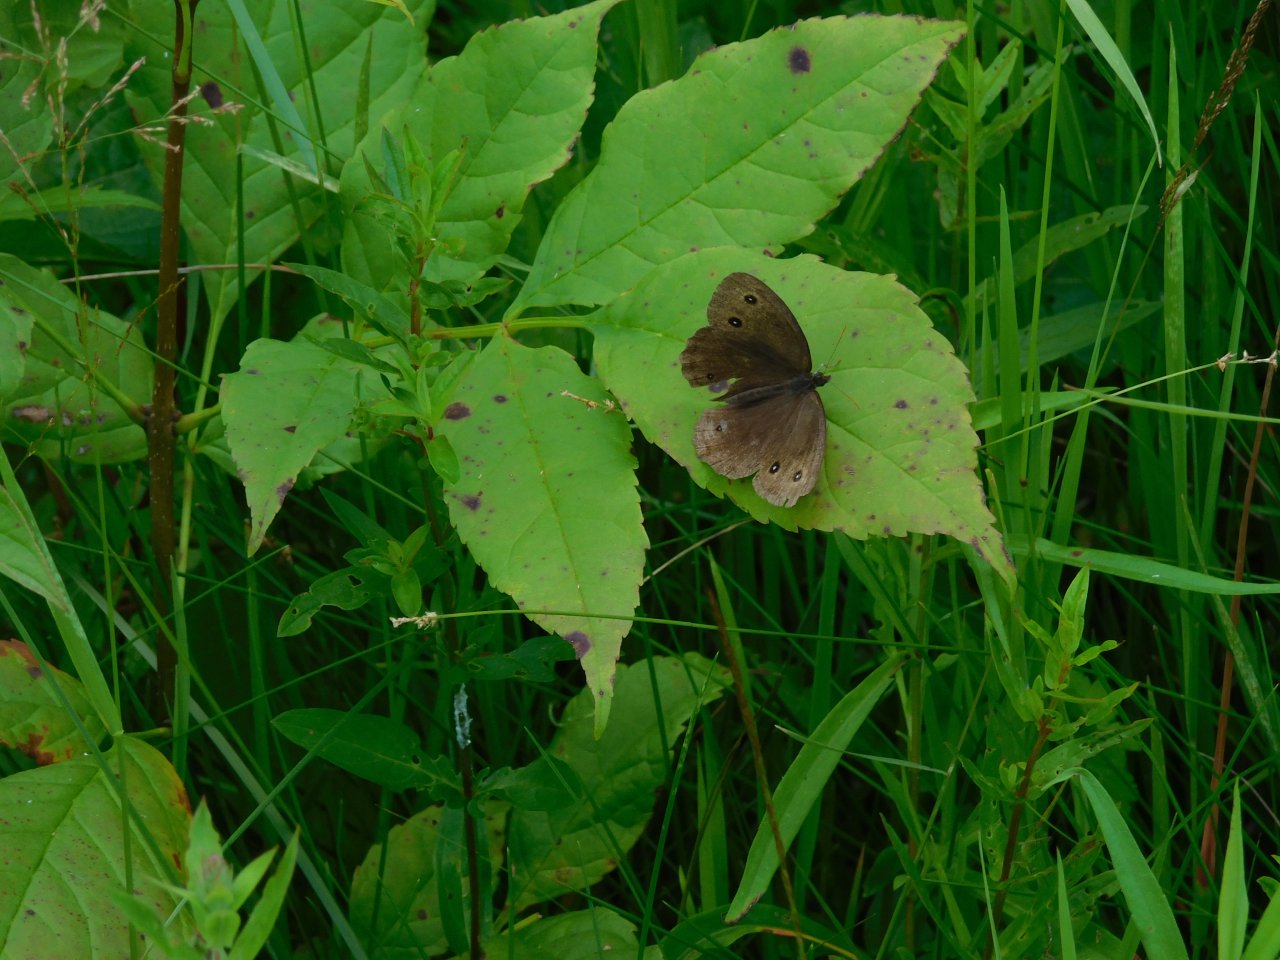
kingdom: Animalia
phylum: Arthropoda
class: Insecta
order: Lepidoptera
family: Nymphalidae
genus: Cercyonis
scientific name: Cercyonis pegala
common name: Common Wood-Nymph
